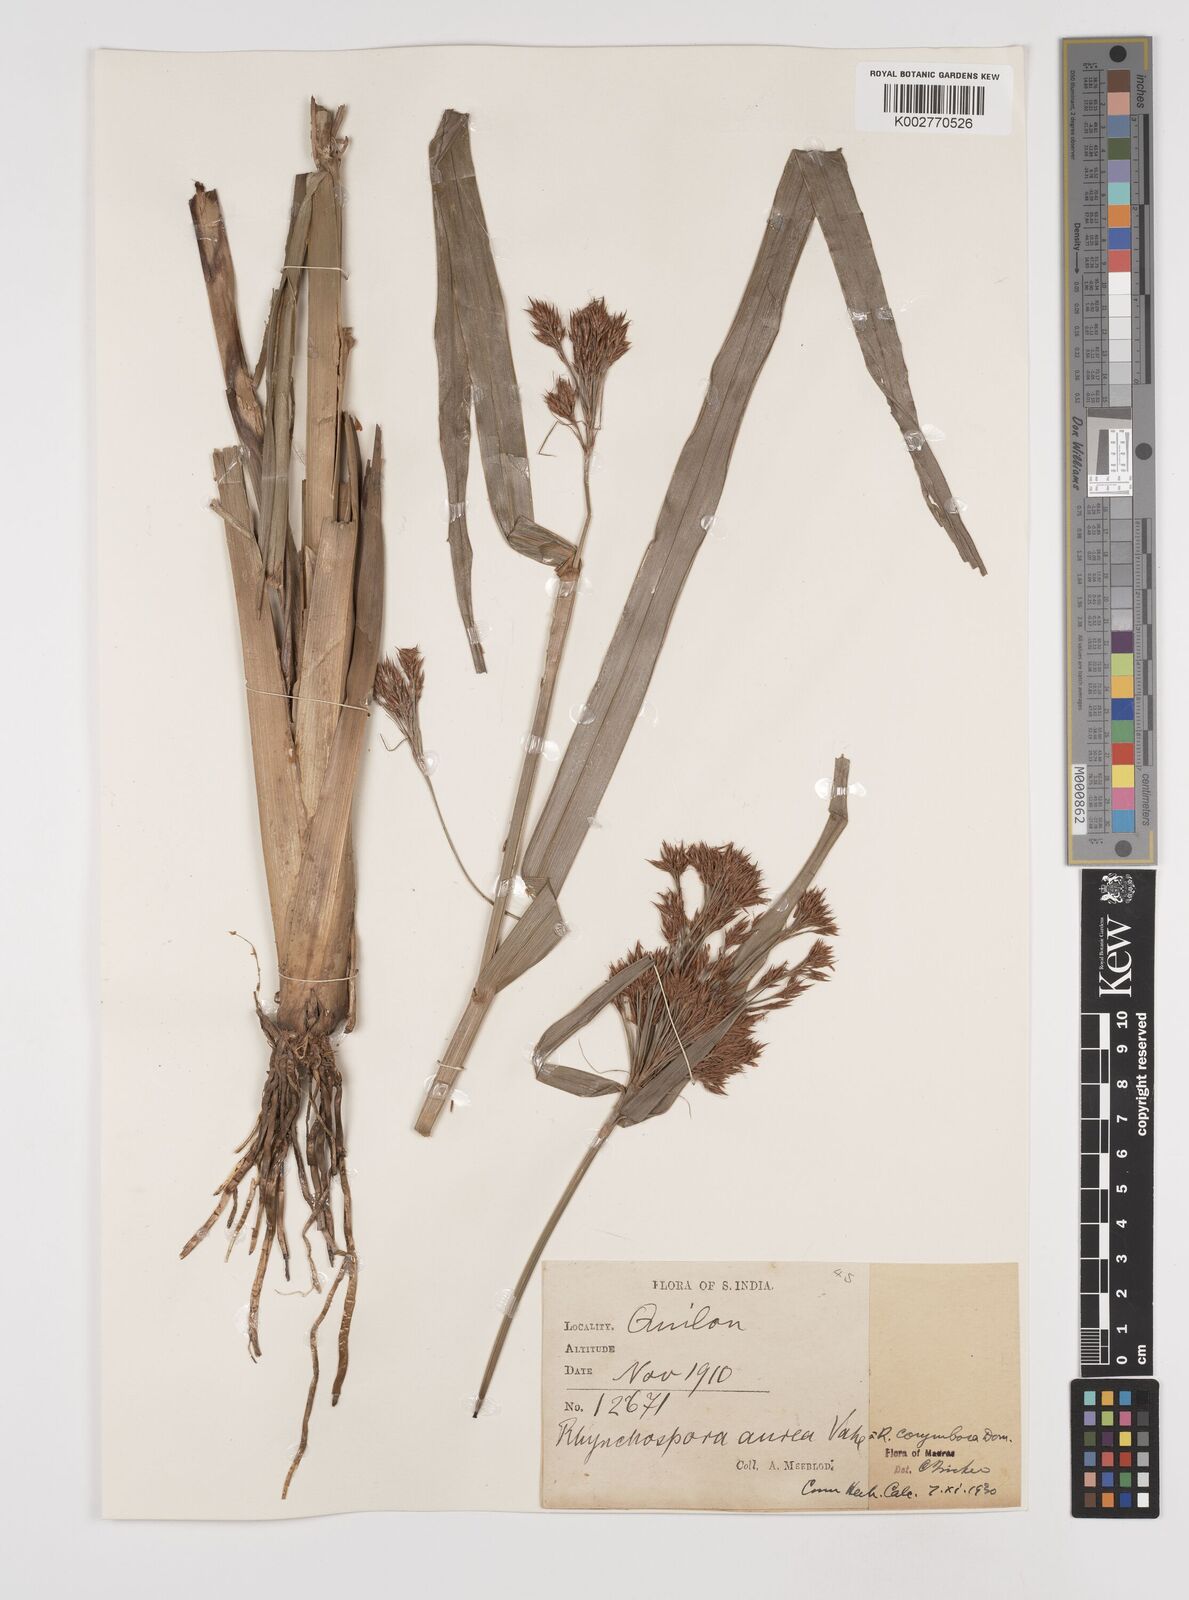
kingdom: Plantae
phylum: Tracheophyta
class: Liliopsida
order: Poales
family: Cyperaceae
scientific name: Cyperaceae
